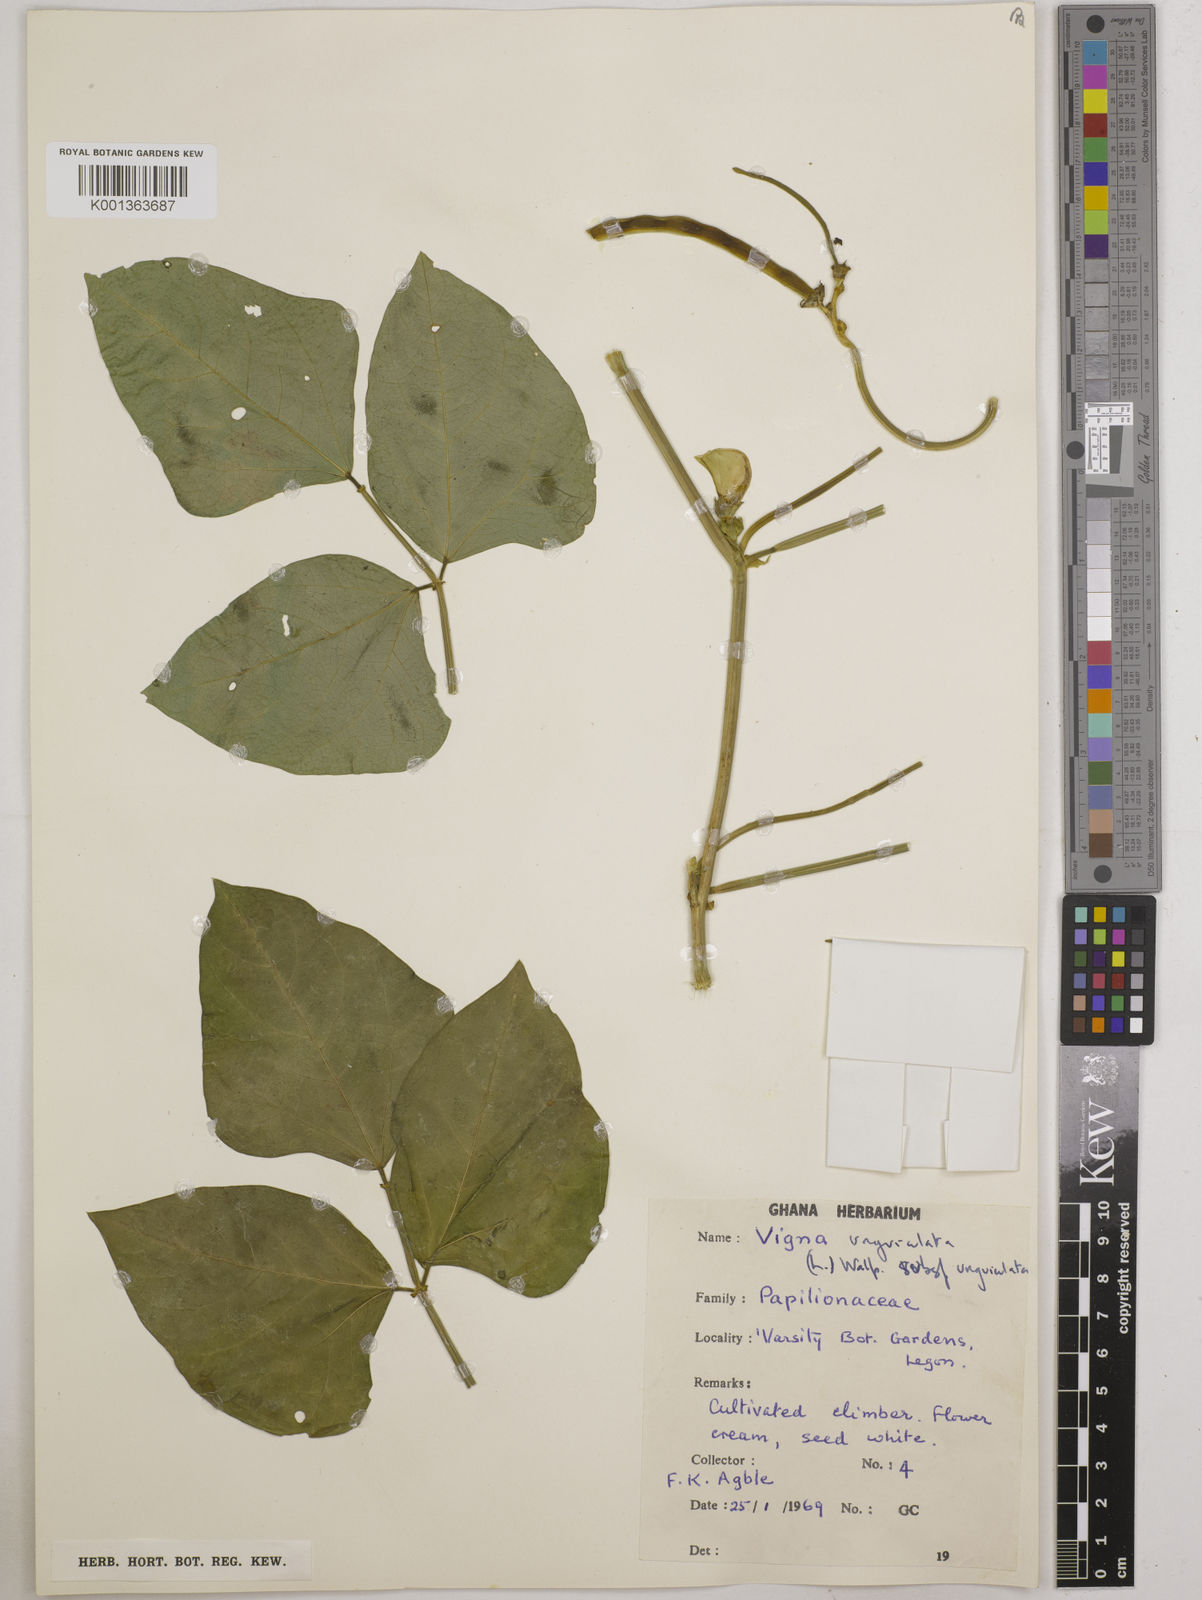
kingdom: Plantae
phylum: Tracheophyta
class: Magnoliopsida
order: Fabales
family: Fabaceae
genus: Vigna
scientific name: Vigna unguiculata
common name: Cowpea
